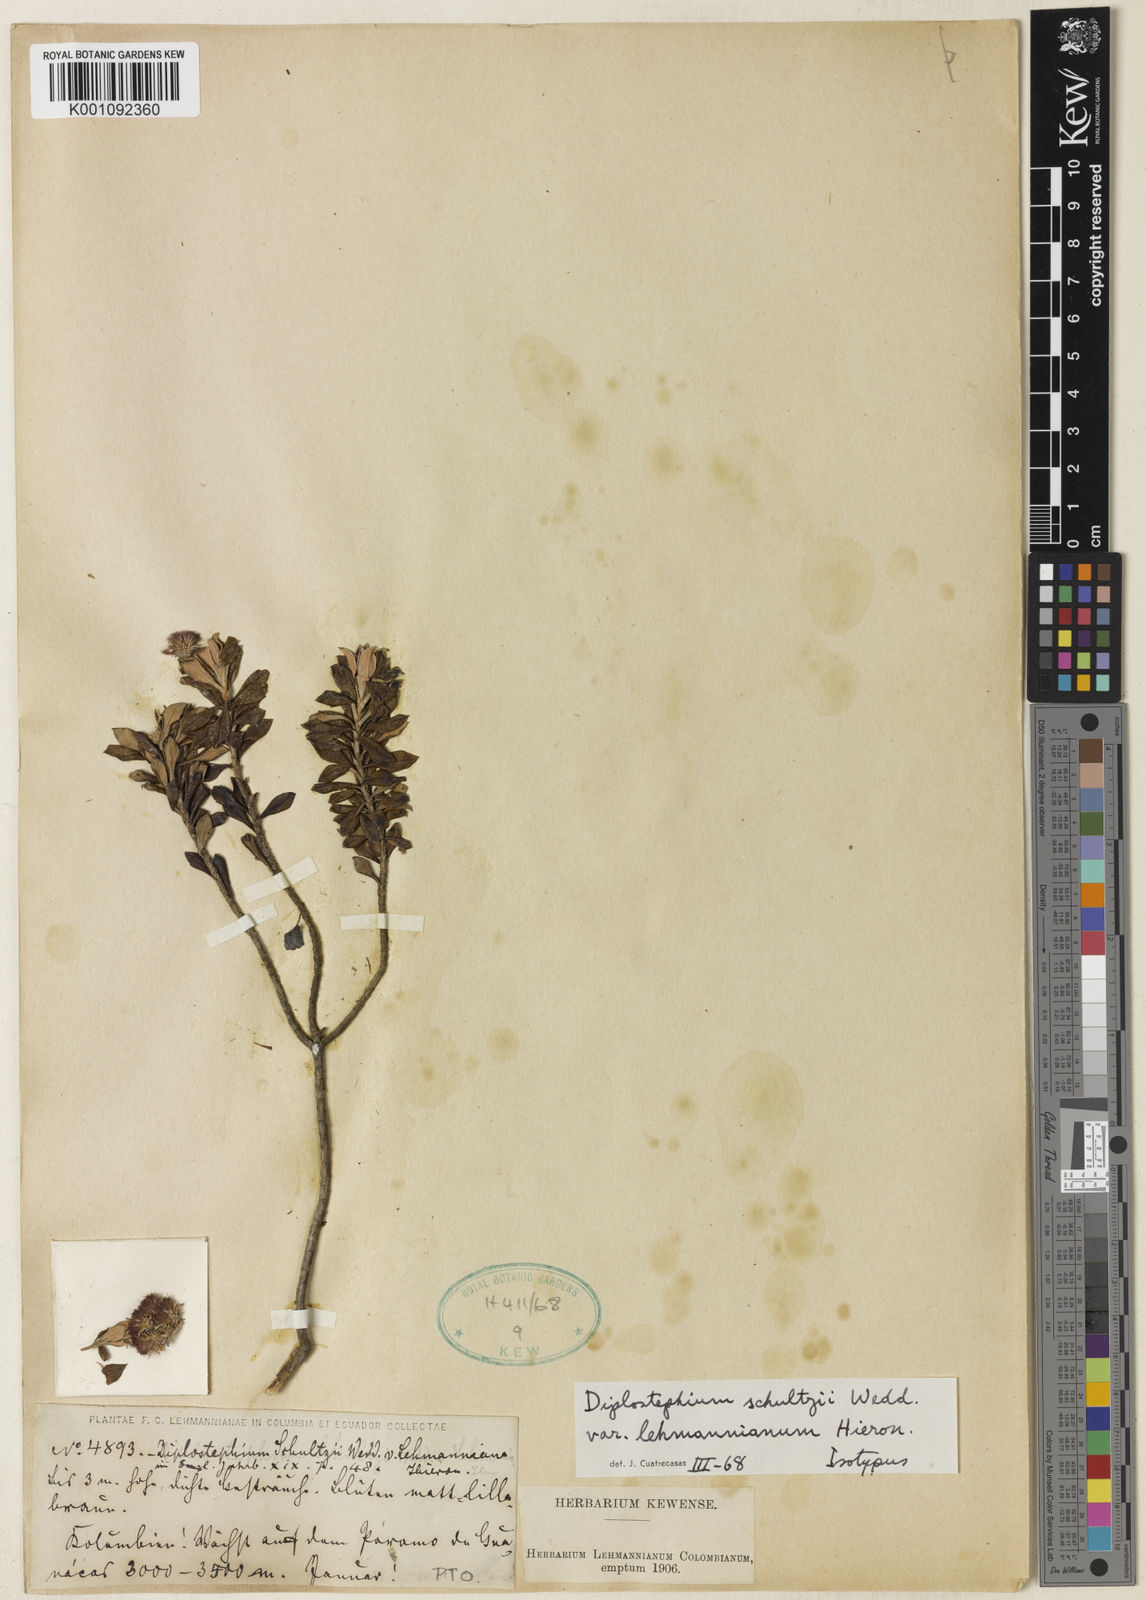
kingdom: Plantae
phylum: Tracheophyta
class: Magnoliopsida
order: Asterales
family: Asteraceae
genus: Linochilus
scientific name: Linochilus schultzii
